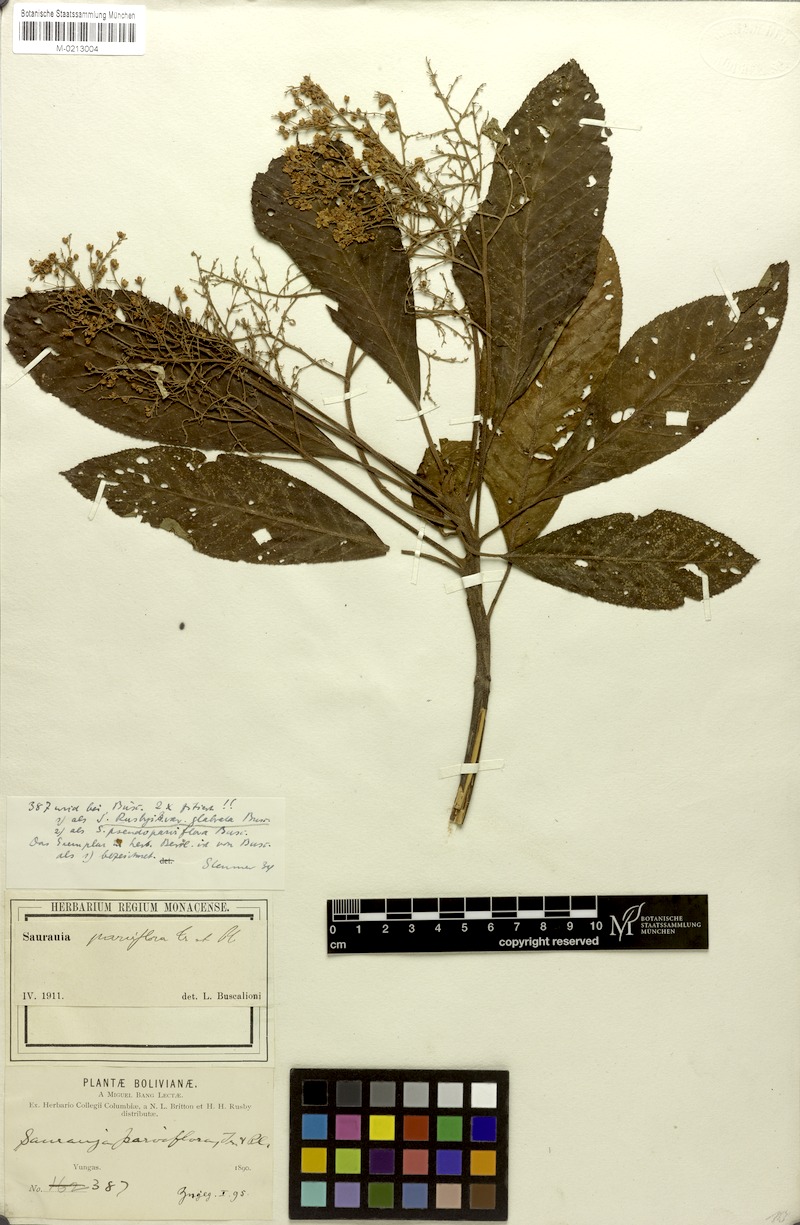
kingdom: Plantae
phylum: Tracheophyta
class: Magnoliopsida
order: Ericales
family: Actinidiaceae
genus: Saurauia
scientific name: Saurauia peruviana
